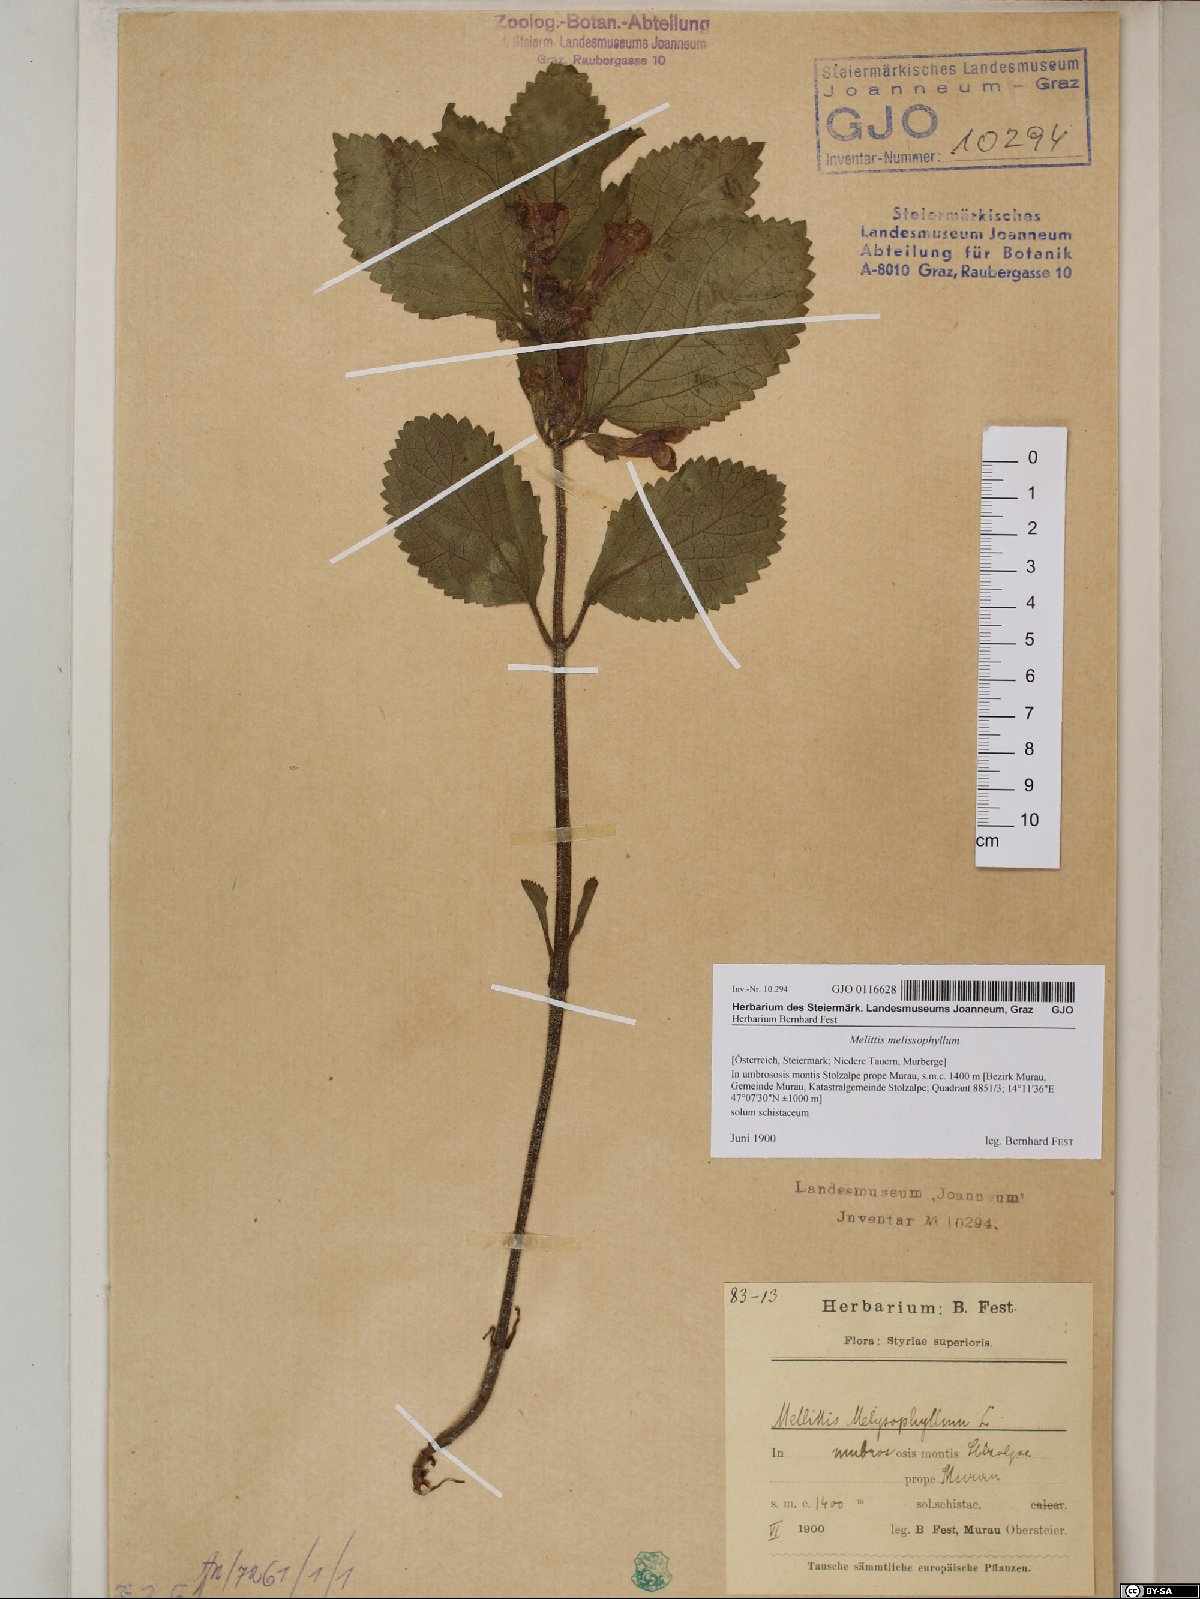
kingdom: Plantae
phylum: Tracheophyta
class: Magnoliopsida
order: Lamiales
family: Lamiaceae
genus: Melittis
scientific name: Melittis melissophyllum
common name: Bastard balm
